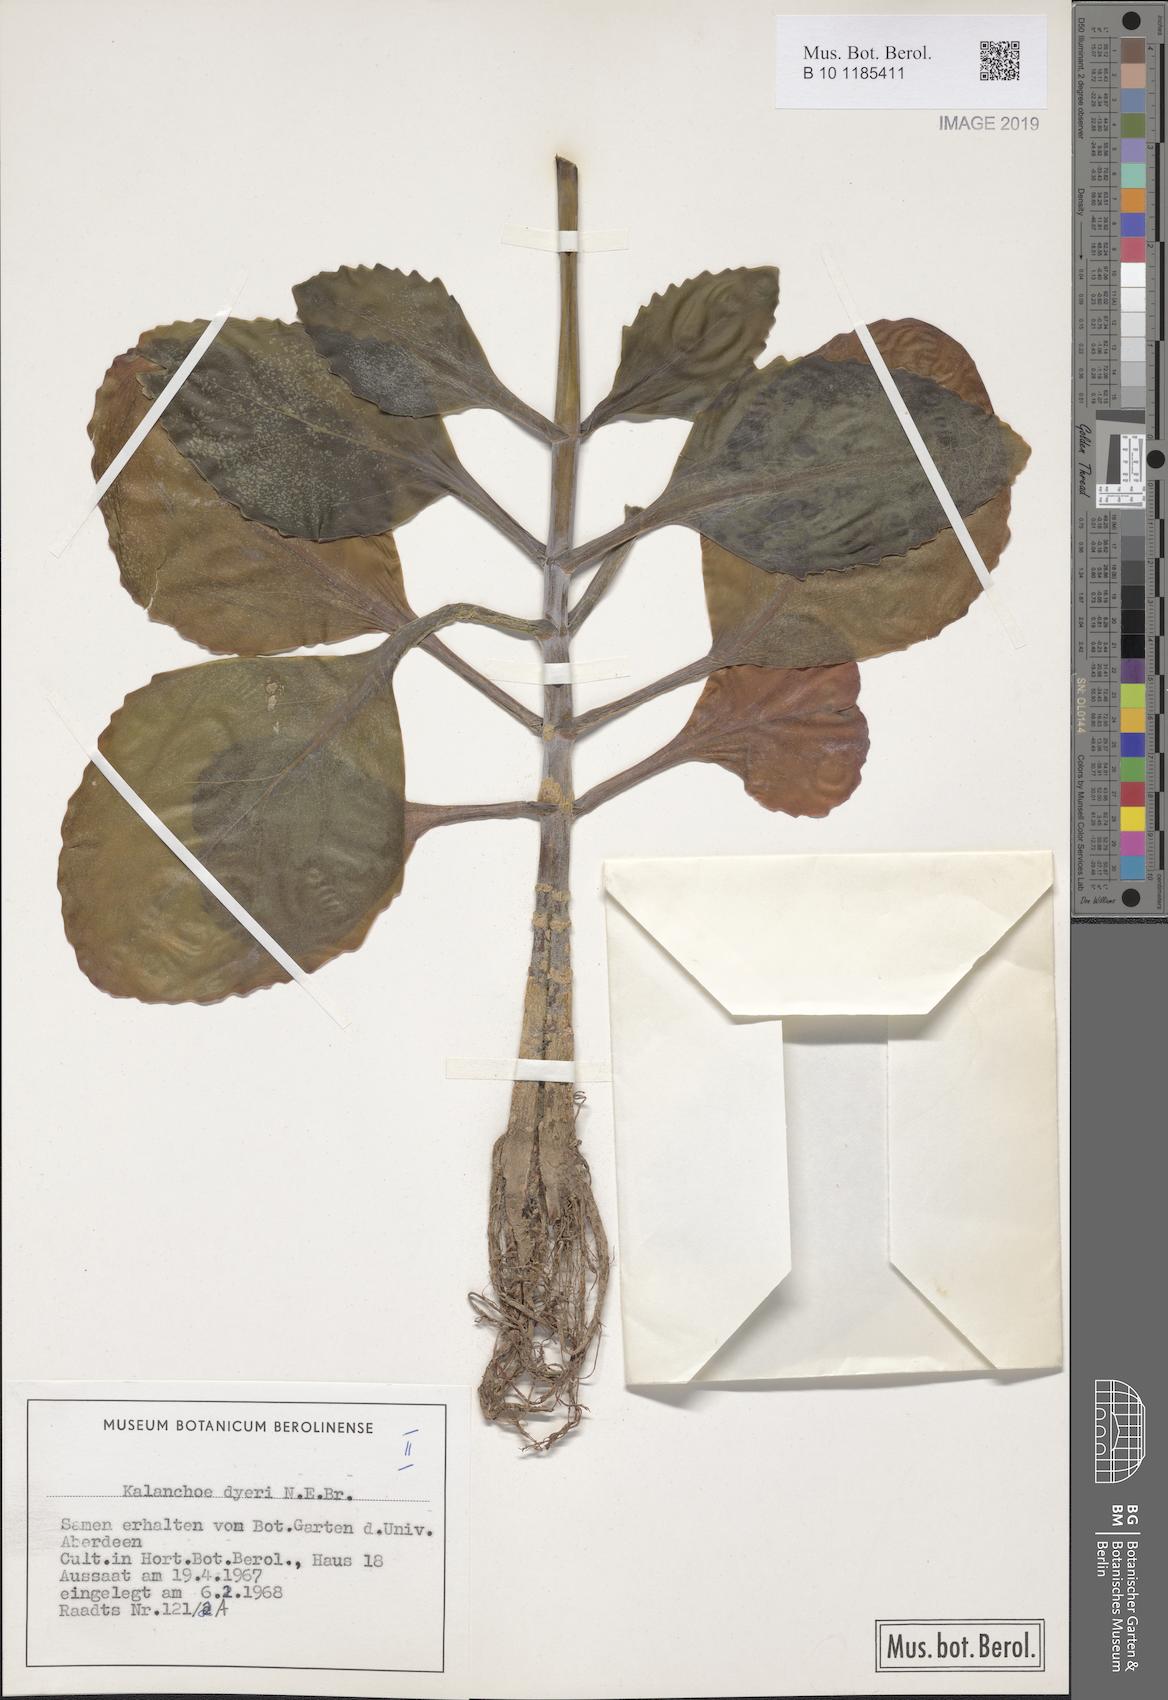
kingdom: Plantae
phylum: Tracheophyta
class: Magnoliopsida
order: Saxifragales
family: Crassulaceae
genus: Kalanchoe
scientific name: Kalanchoe dyeri
